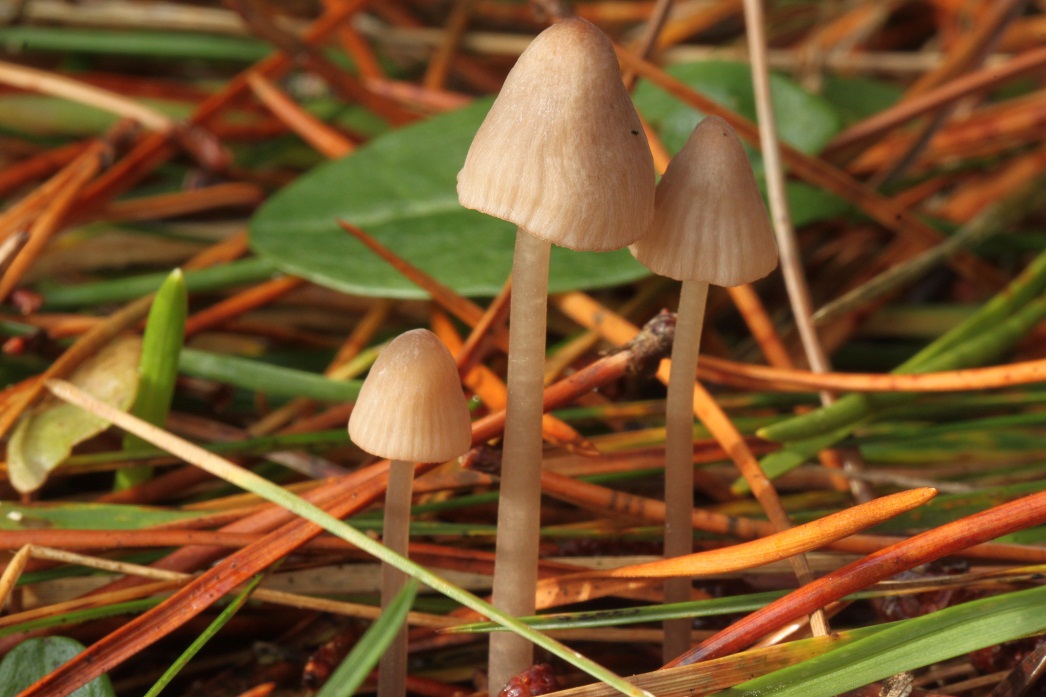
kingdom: Fungi
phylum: Basidiomycota
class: Agaricomycetes
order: Agaricales
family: Mycenaceae
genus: Mycena
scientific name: Mycena capillaripes
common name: nåle-huesvamp
